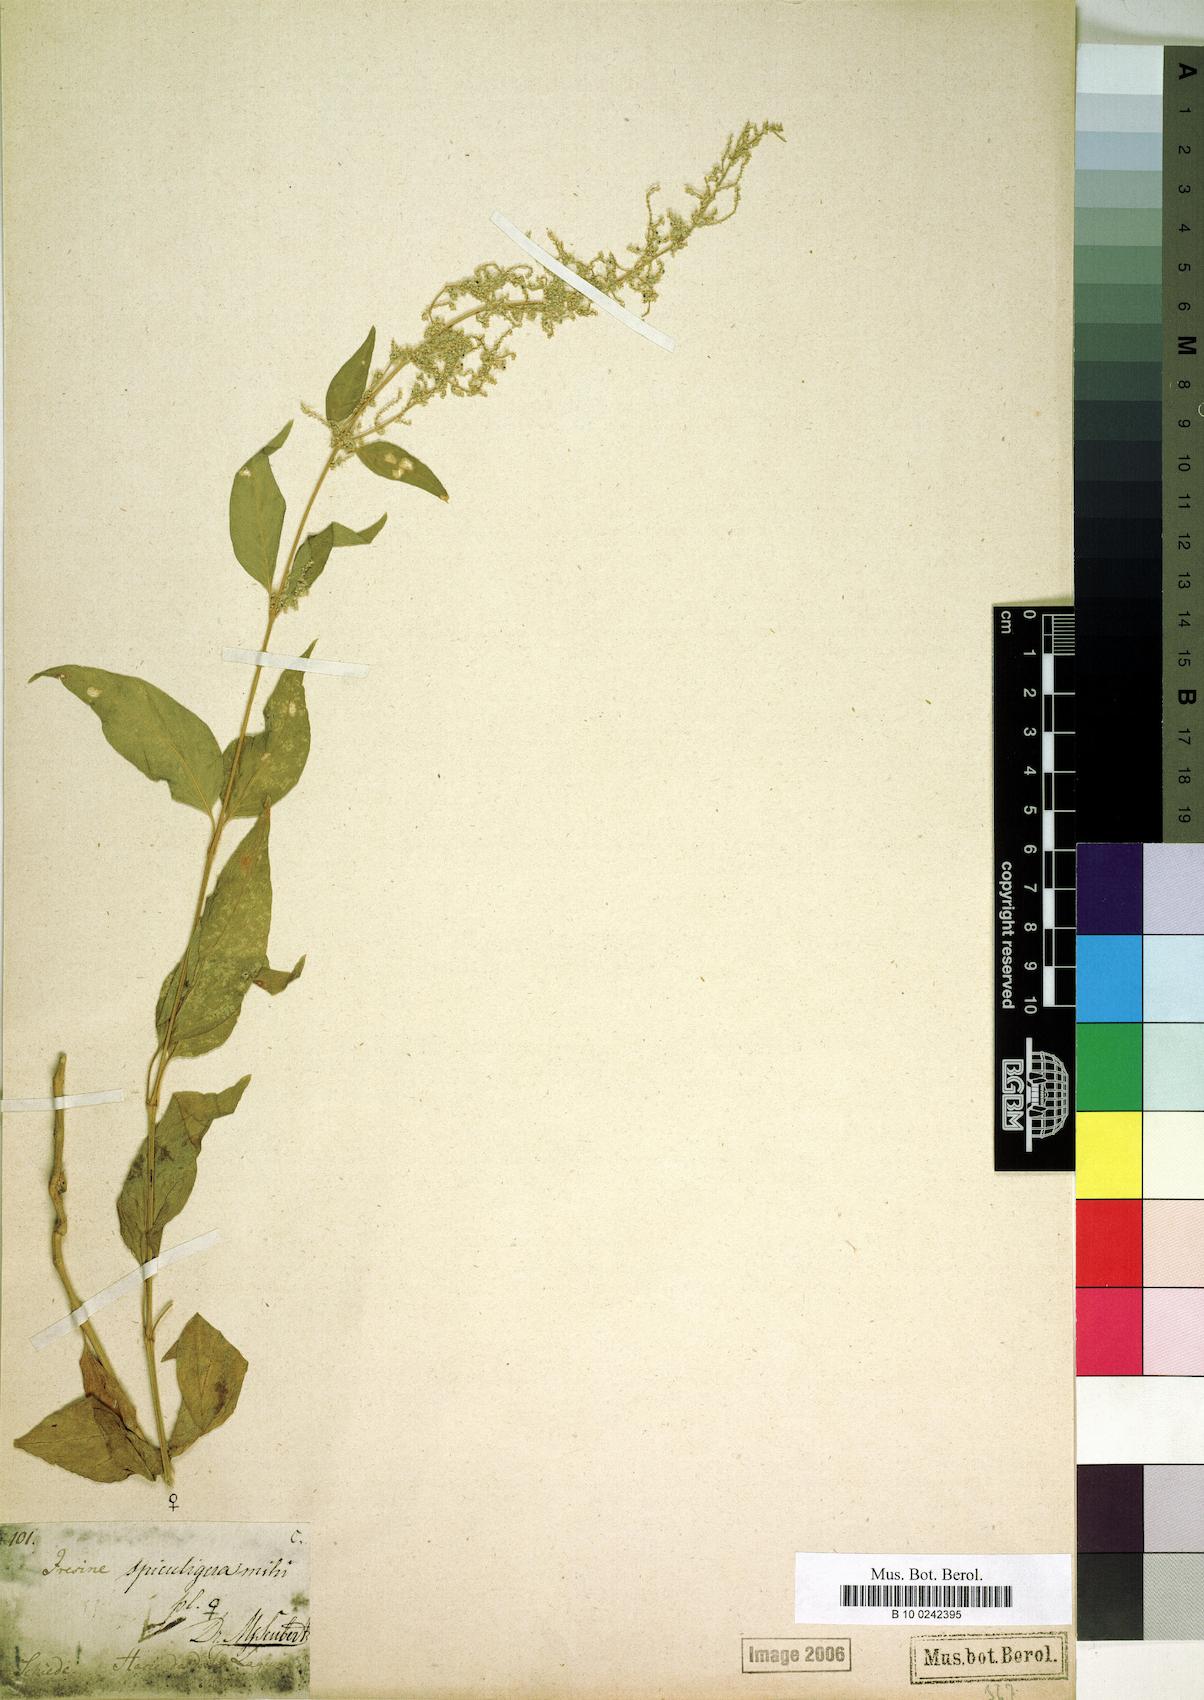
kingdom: Plantae
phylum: Tracheophyta
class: Magnoliopsida
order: Caryophyllales
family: Amaranthaceae
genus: Iresine
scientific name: Iresine diffusa
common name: Juba's-bush
